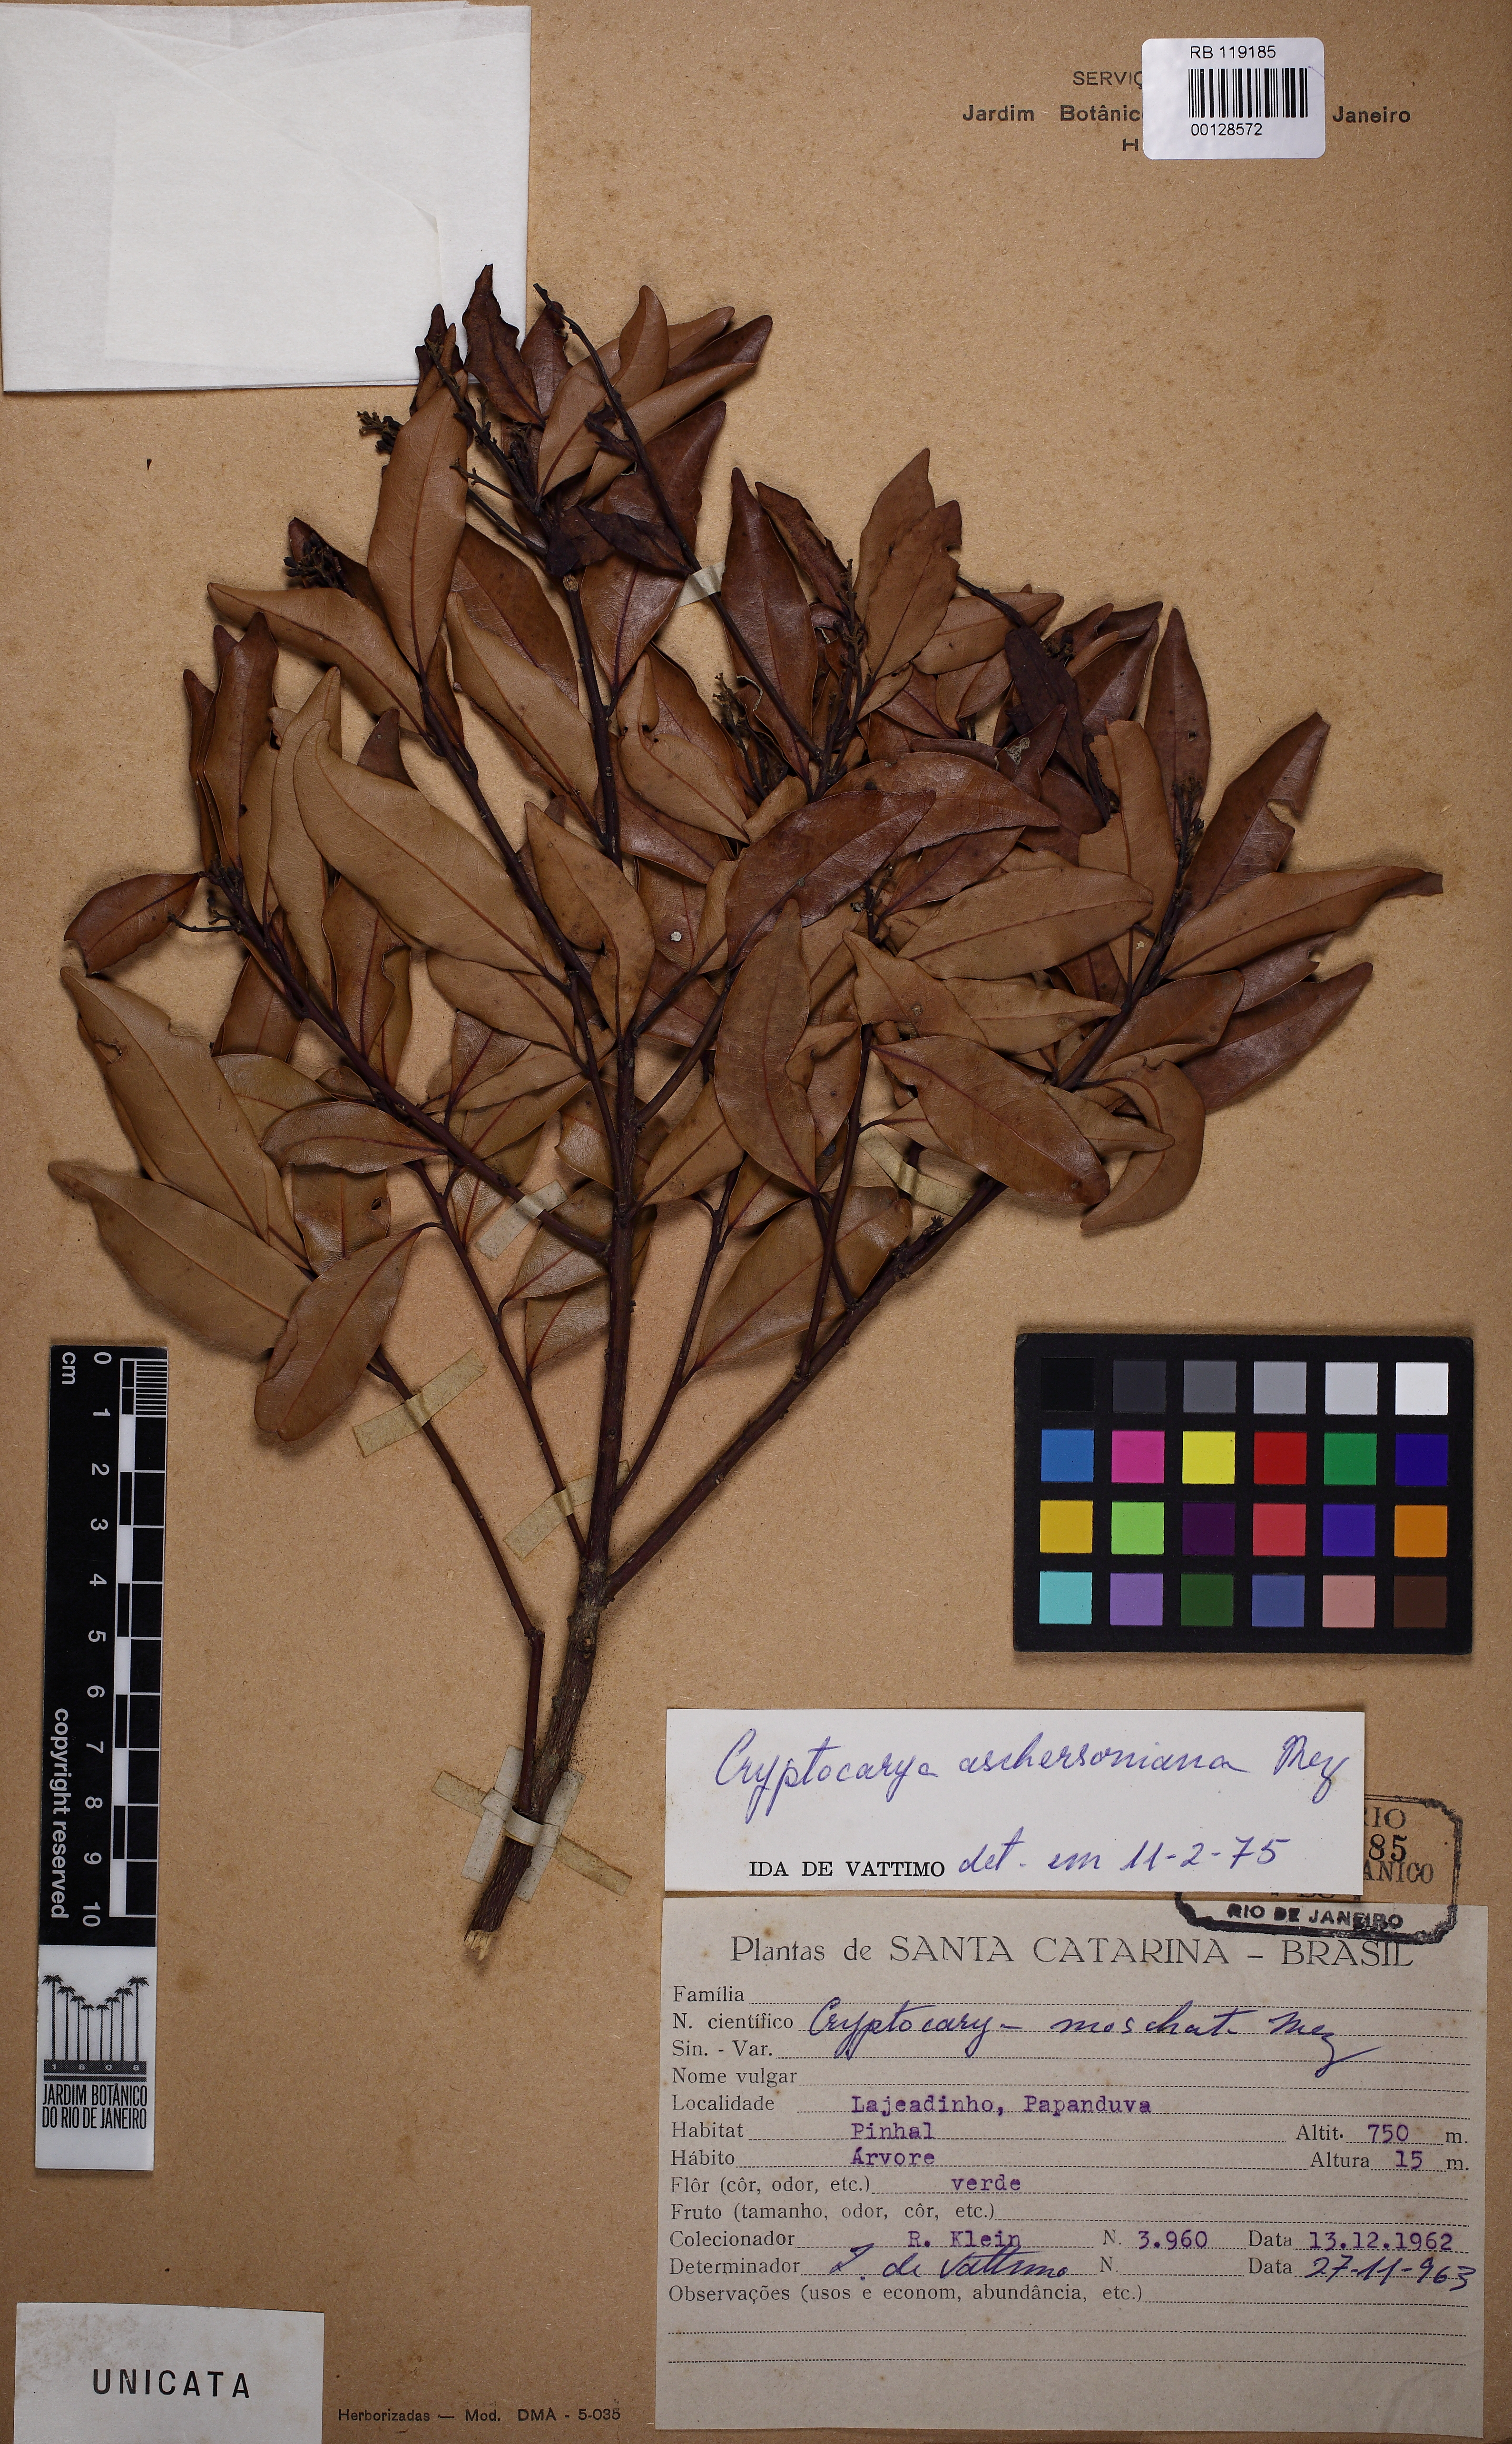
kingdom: Plantae
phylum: Tracheophyta
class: Magnoliopsida
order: Laurales
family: Lauraceae
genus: Cryptocarya
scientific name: Cryptocarya aschersoniana
